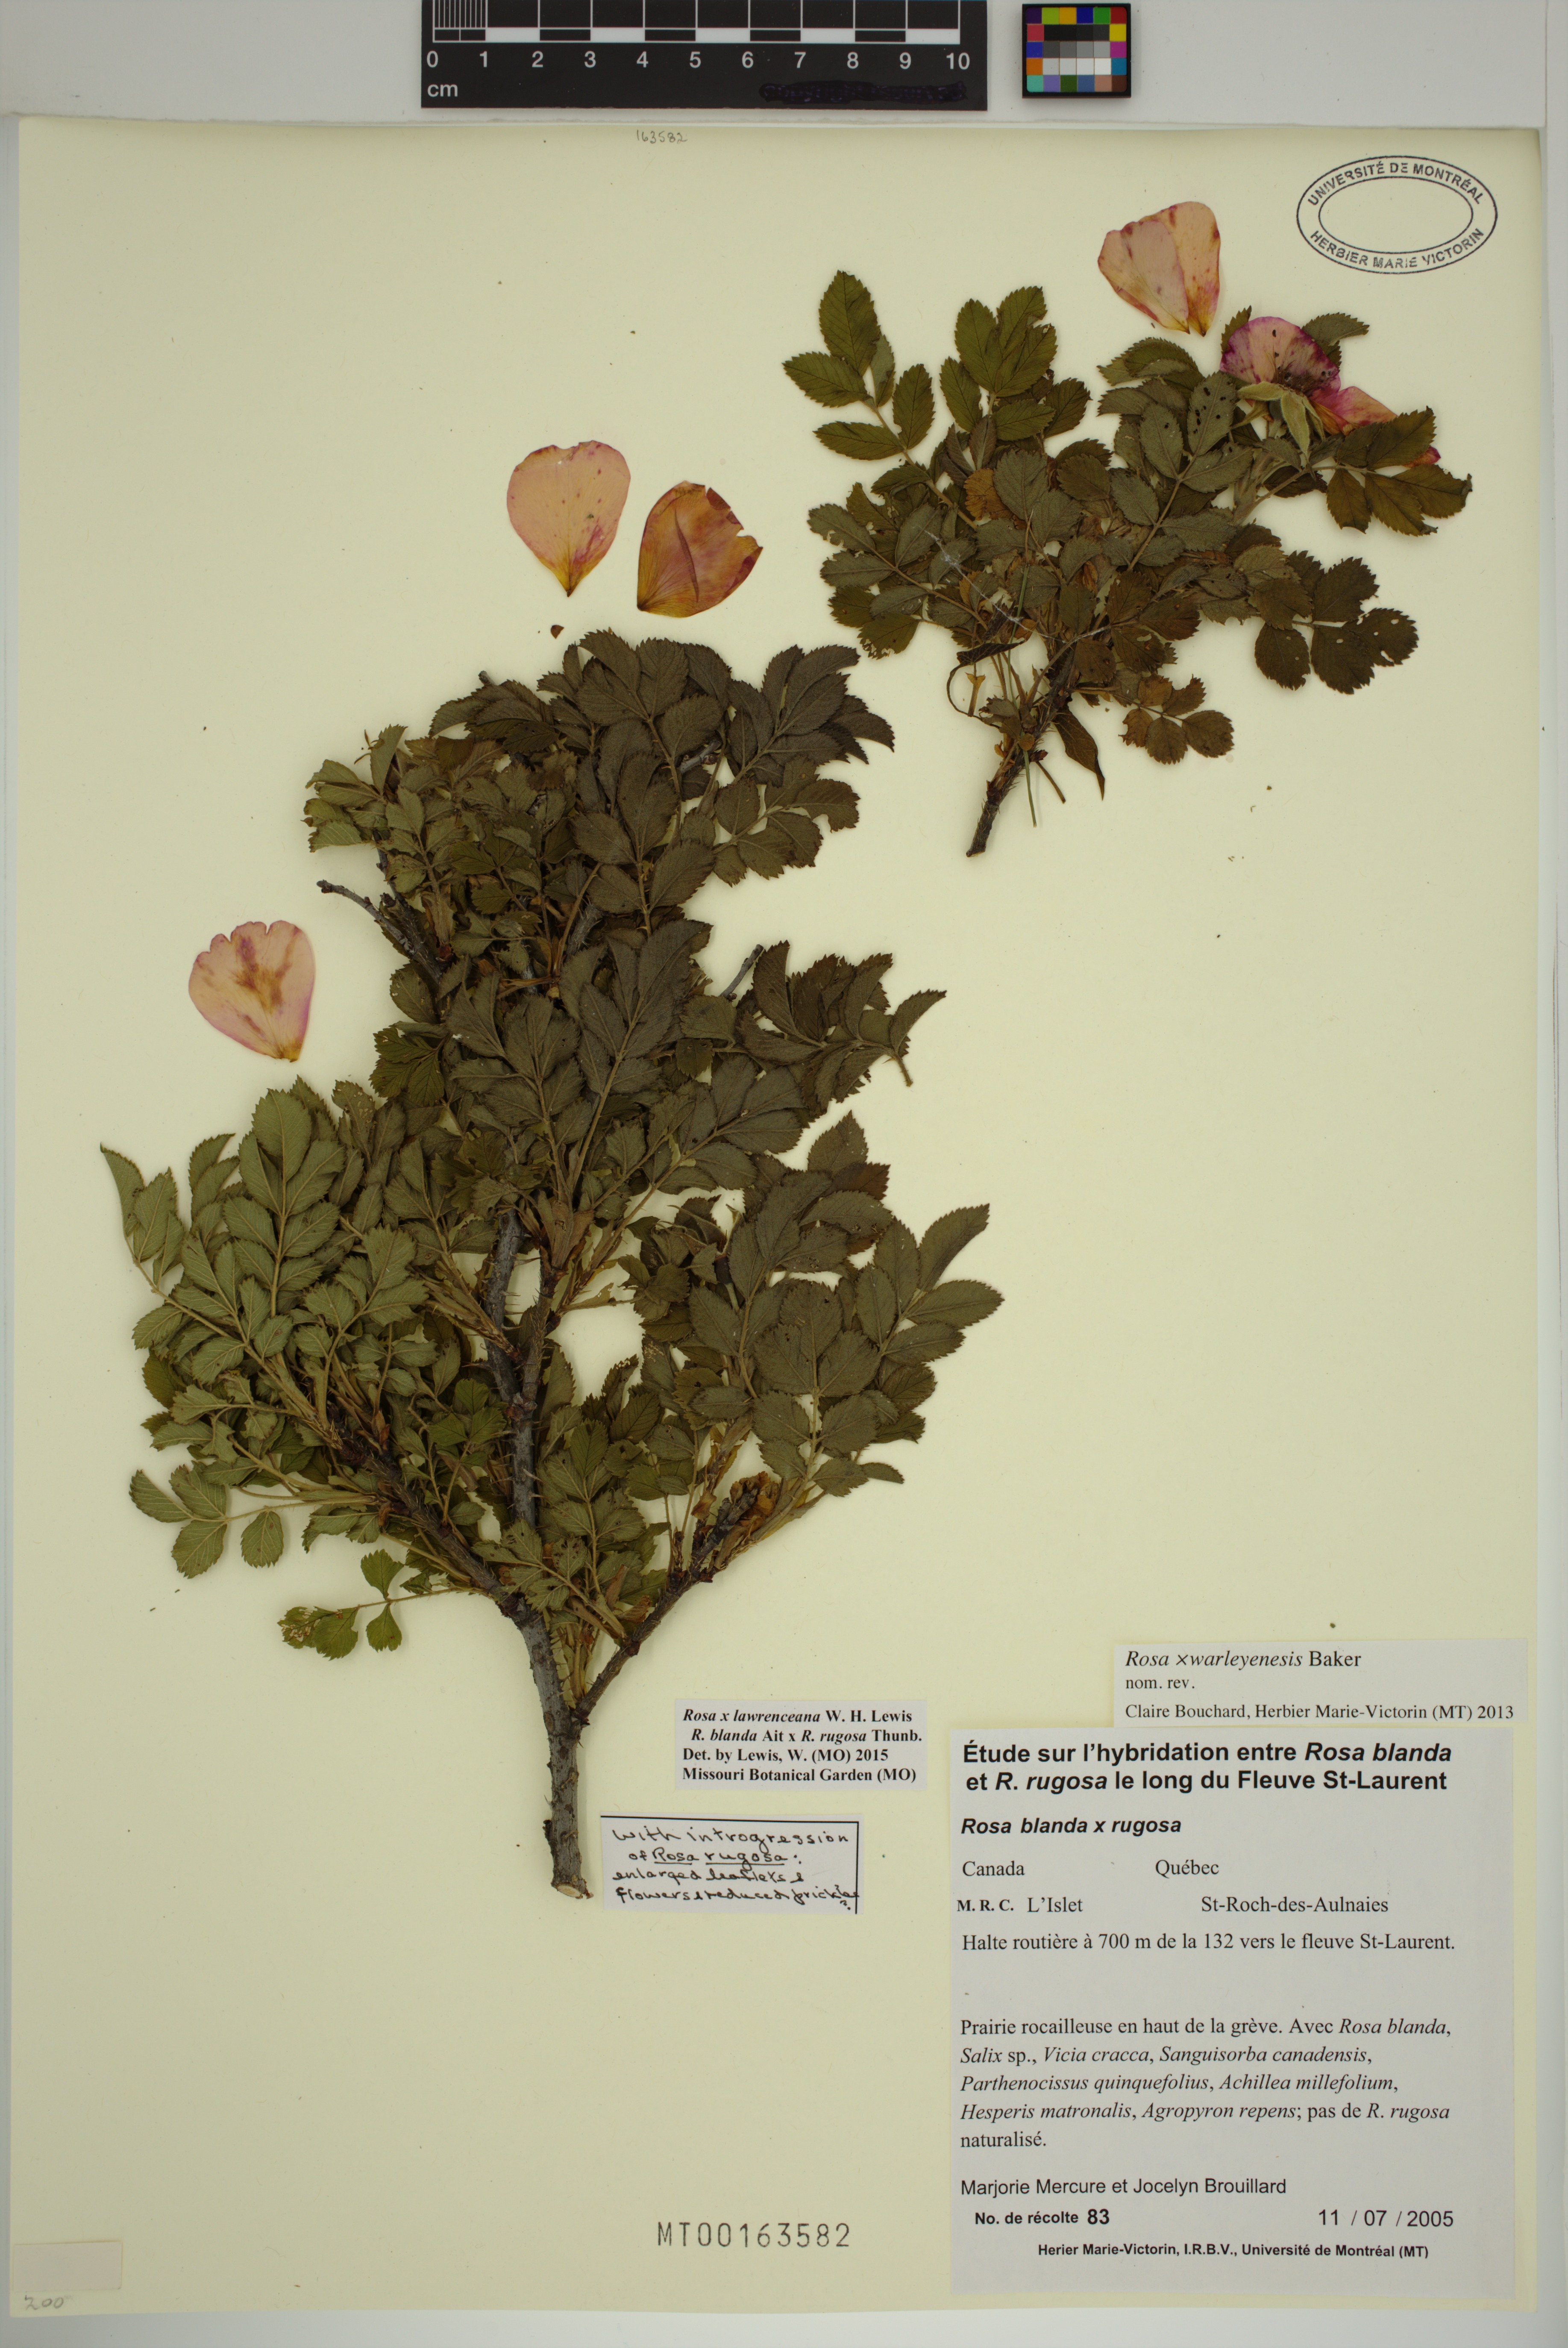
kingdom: Plantae
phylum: Tracheophyta
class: Magnoliopsida
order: Rosales
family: Rosaceae
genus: Rosa
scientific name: Rosa chinensis
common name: China rose
